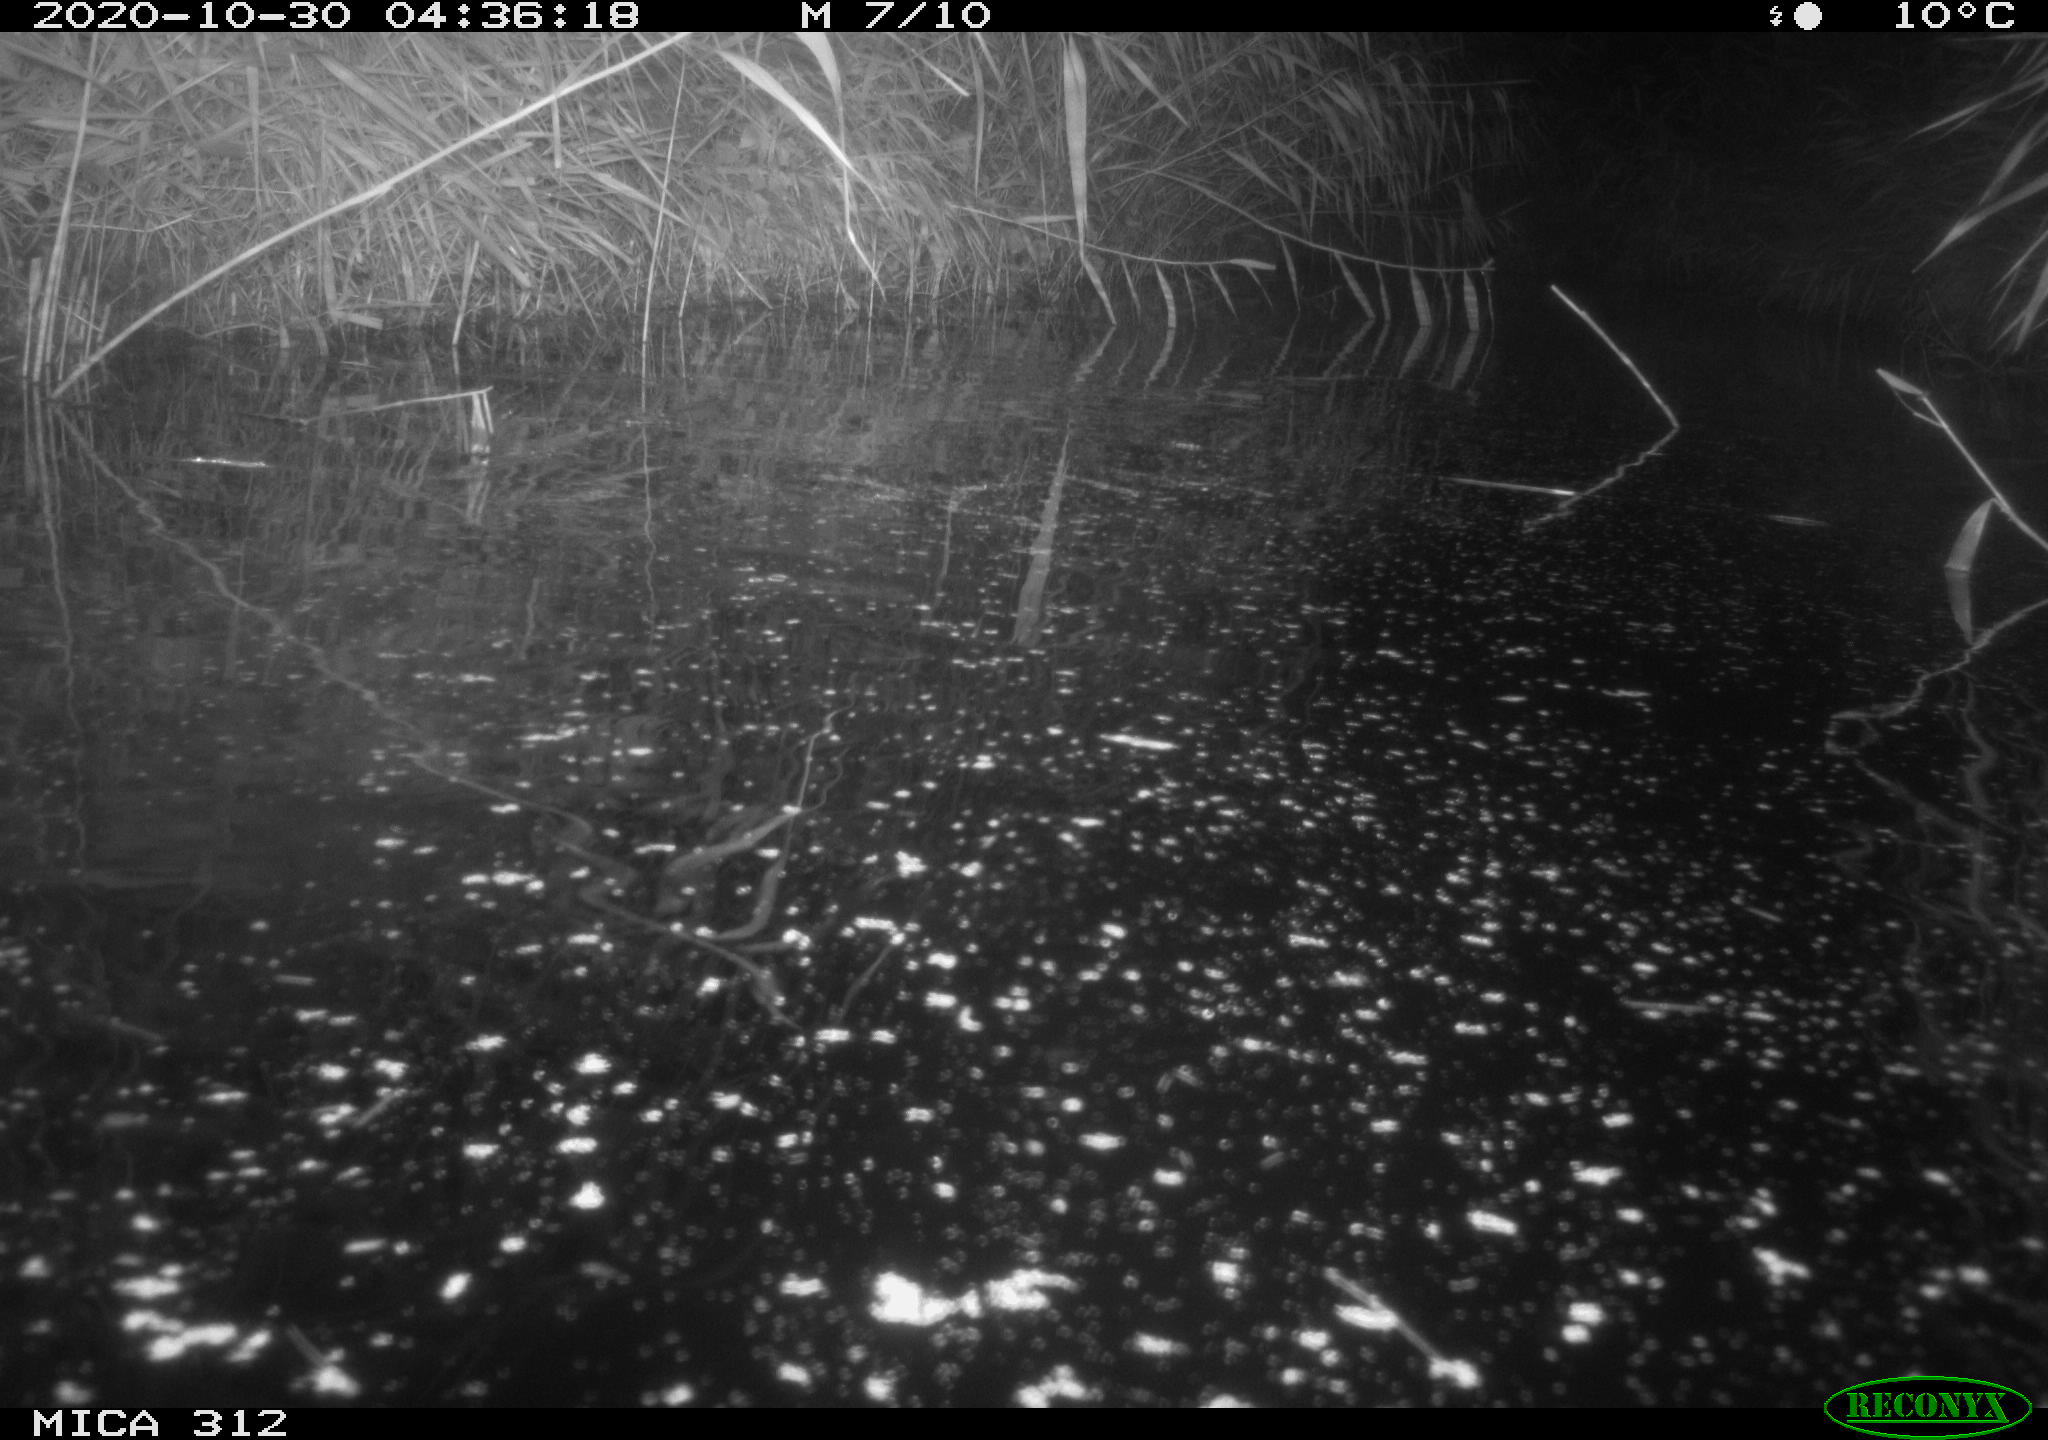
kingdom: Animalia
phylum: Chordata
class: Mammalia
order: Rodentia
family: Muridae
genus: Rattus
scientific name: Rattus norvegicus
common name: Brown rat
